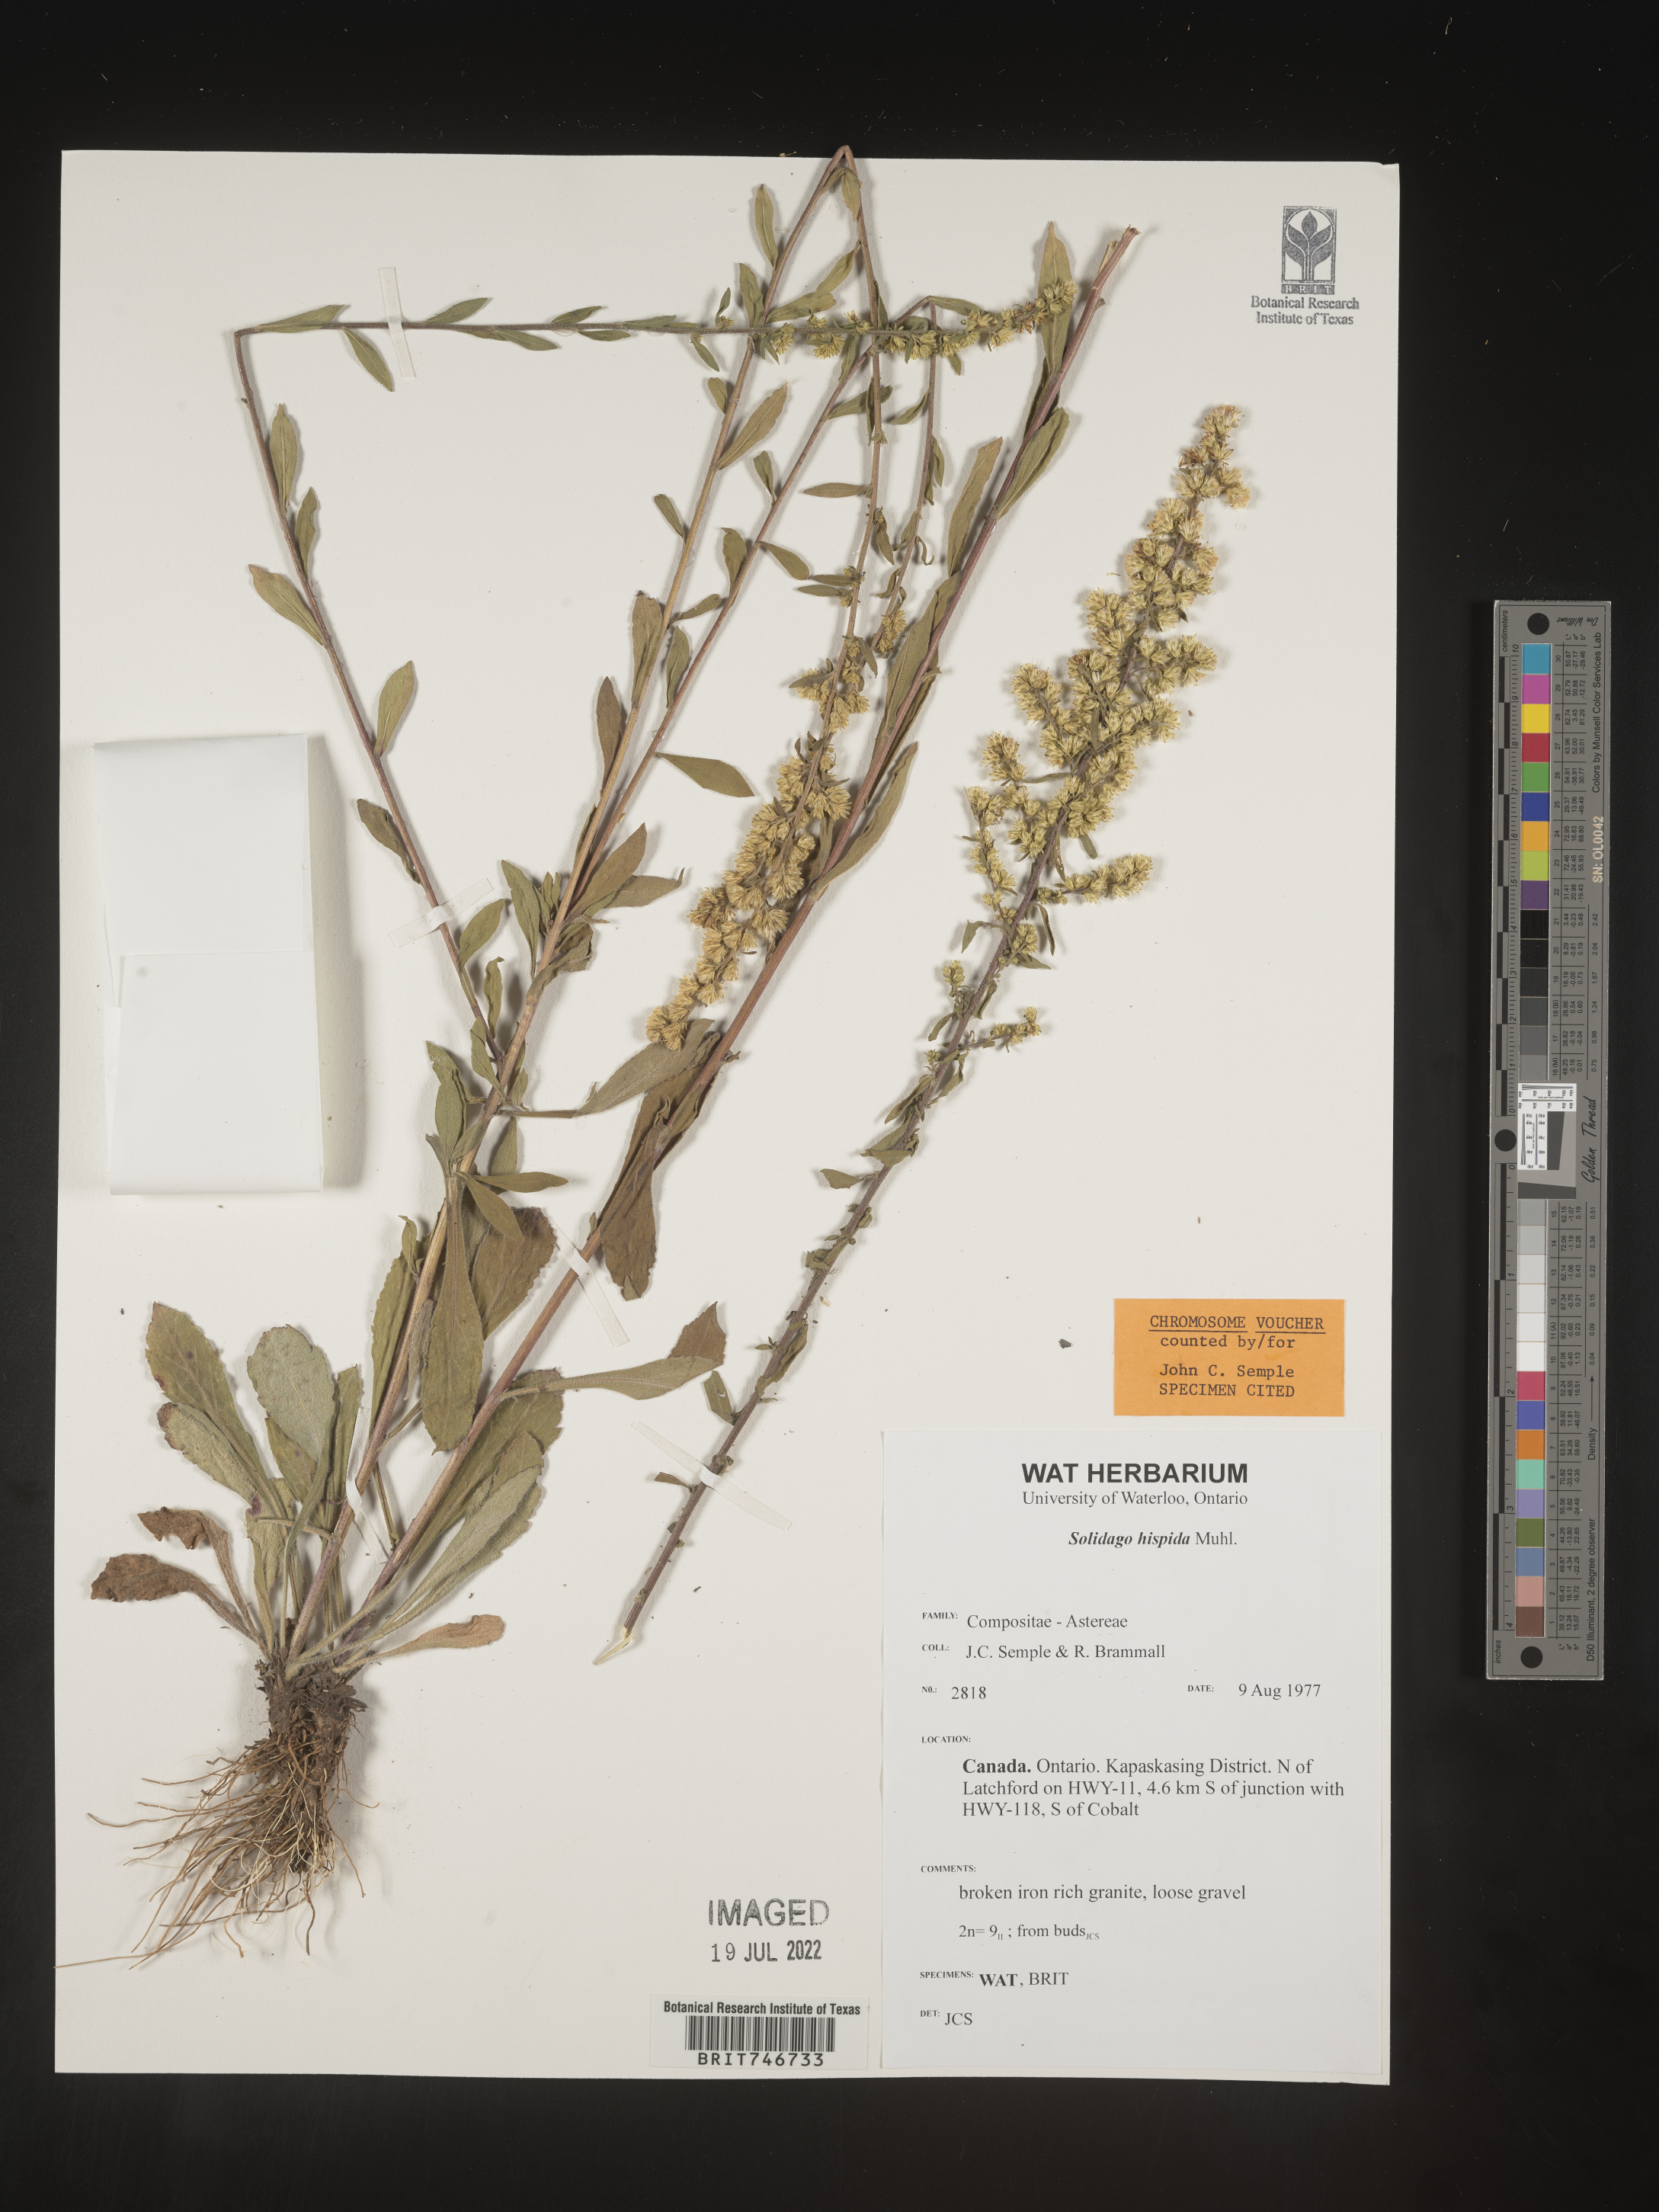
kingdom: Plantae
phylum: Tracheophyta
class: Magnoliopsida
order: Asterales
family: Asteraceae
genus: Solidago
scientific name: Solidago hispida
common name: Hairy goldenrod
